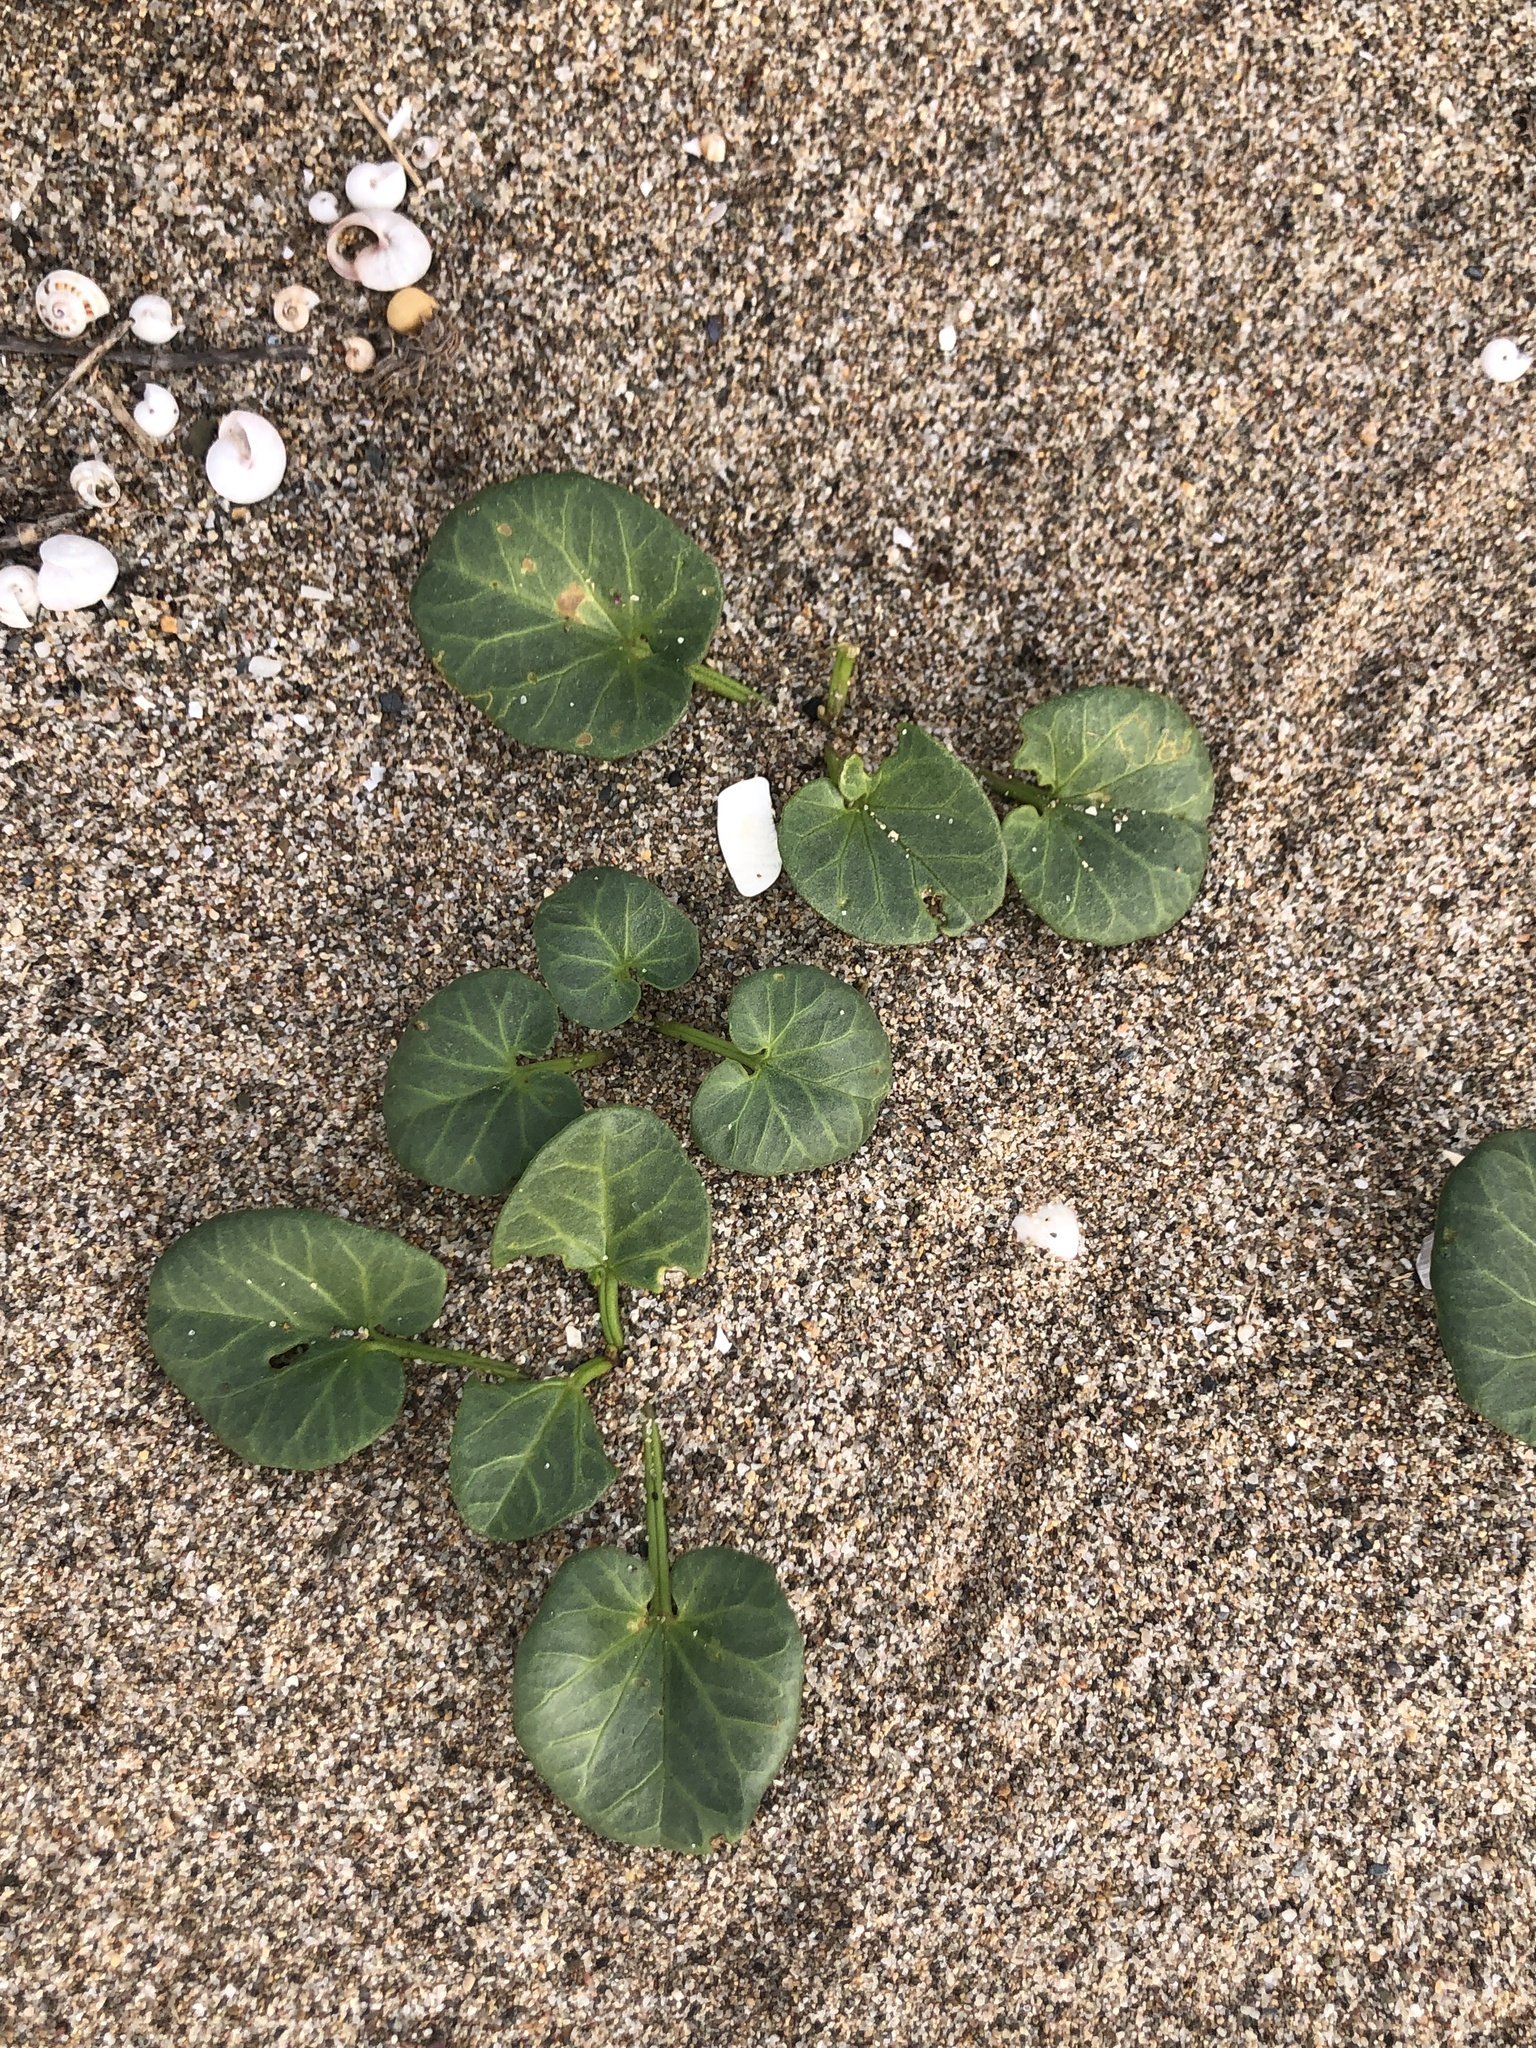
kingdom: Plantae
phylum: Tracheophyta
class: Magnoliopsida
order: Solanales
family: Convolvulaceae
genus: Calystegia
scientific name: Calystegia soldanella
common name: Sea bindweed
